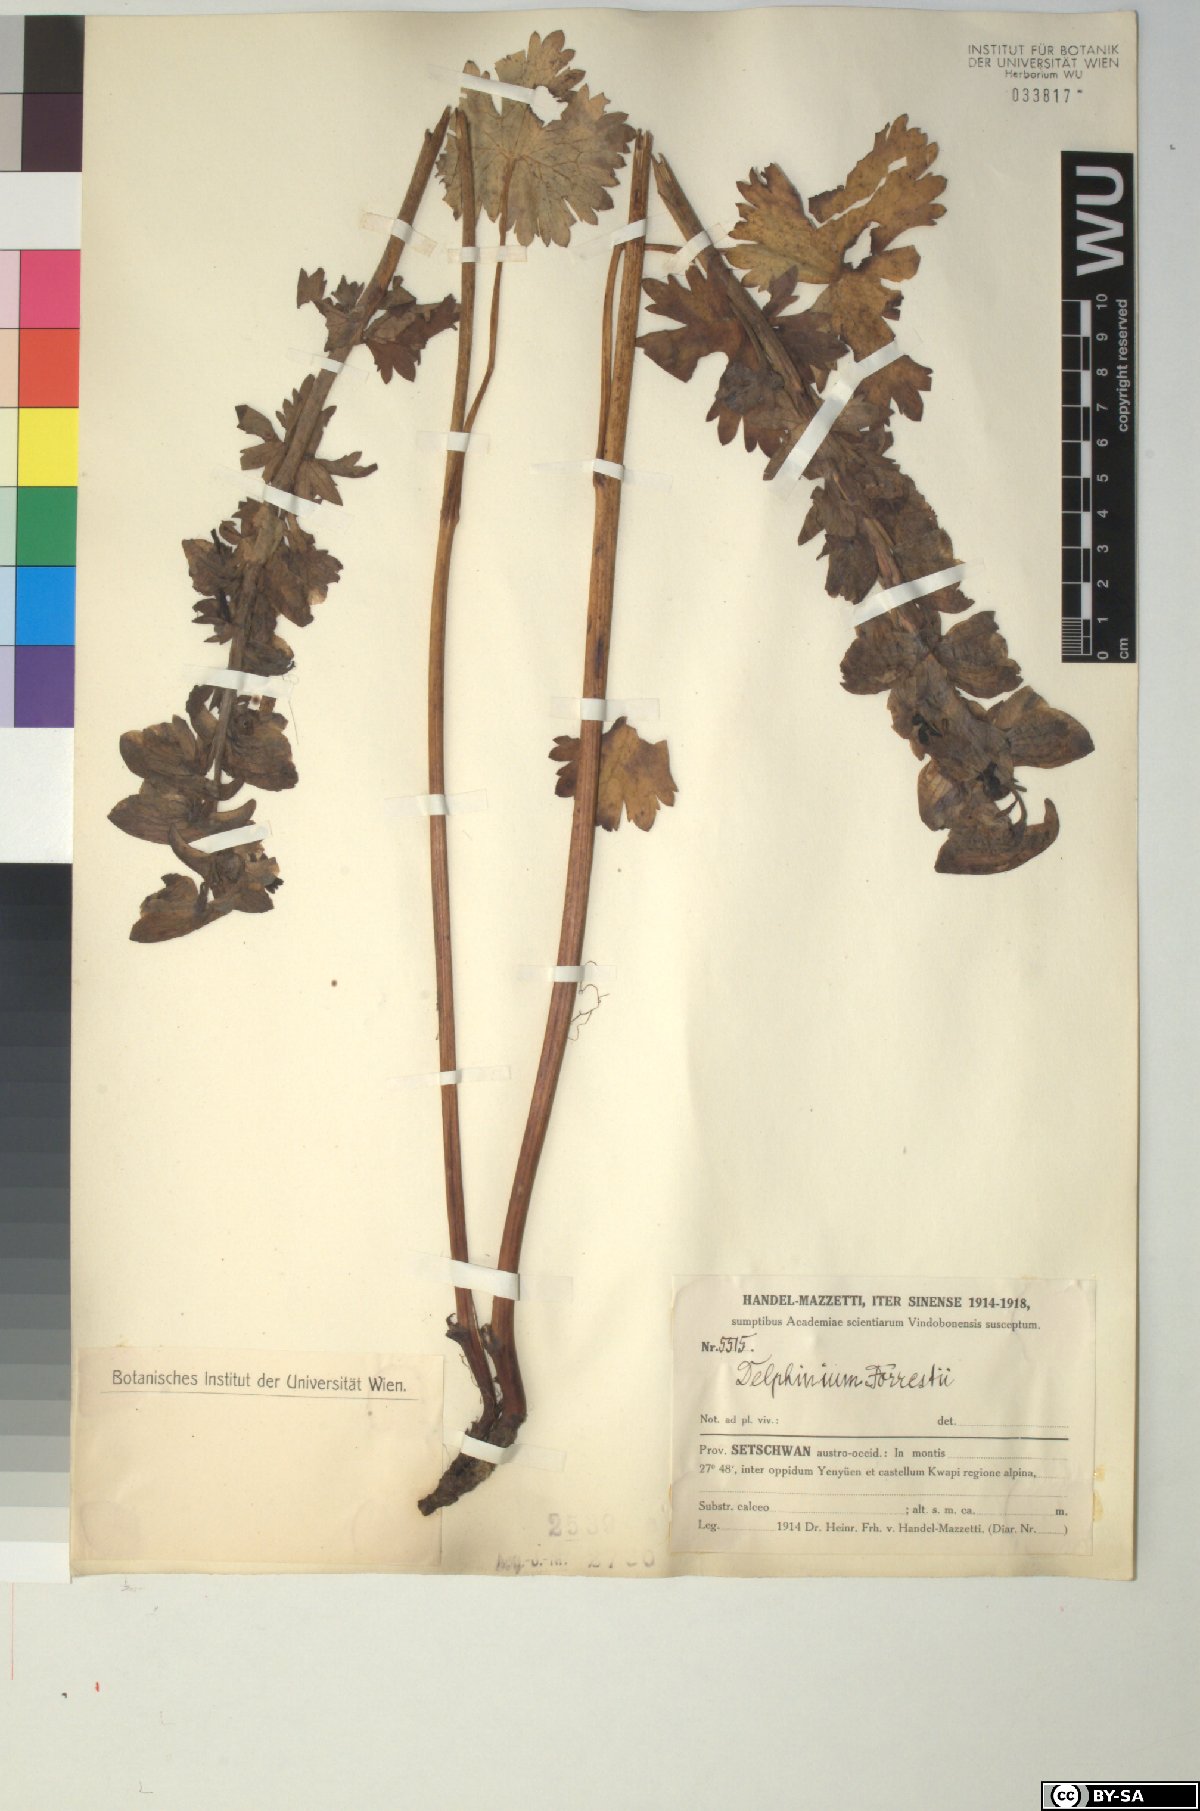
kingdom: Plantae
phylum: Tracheophyta
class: Magnoliopsida
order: Ranunculales
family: Ranunculaceae
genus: Delphinium
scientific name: Delphinium forrestii
